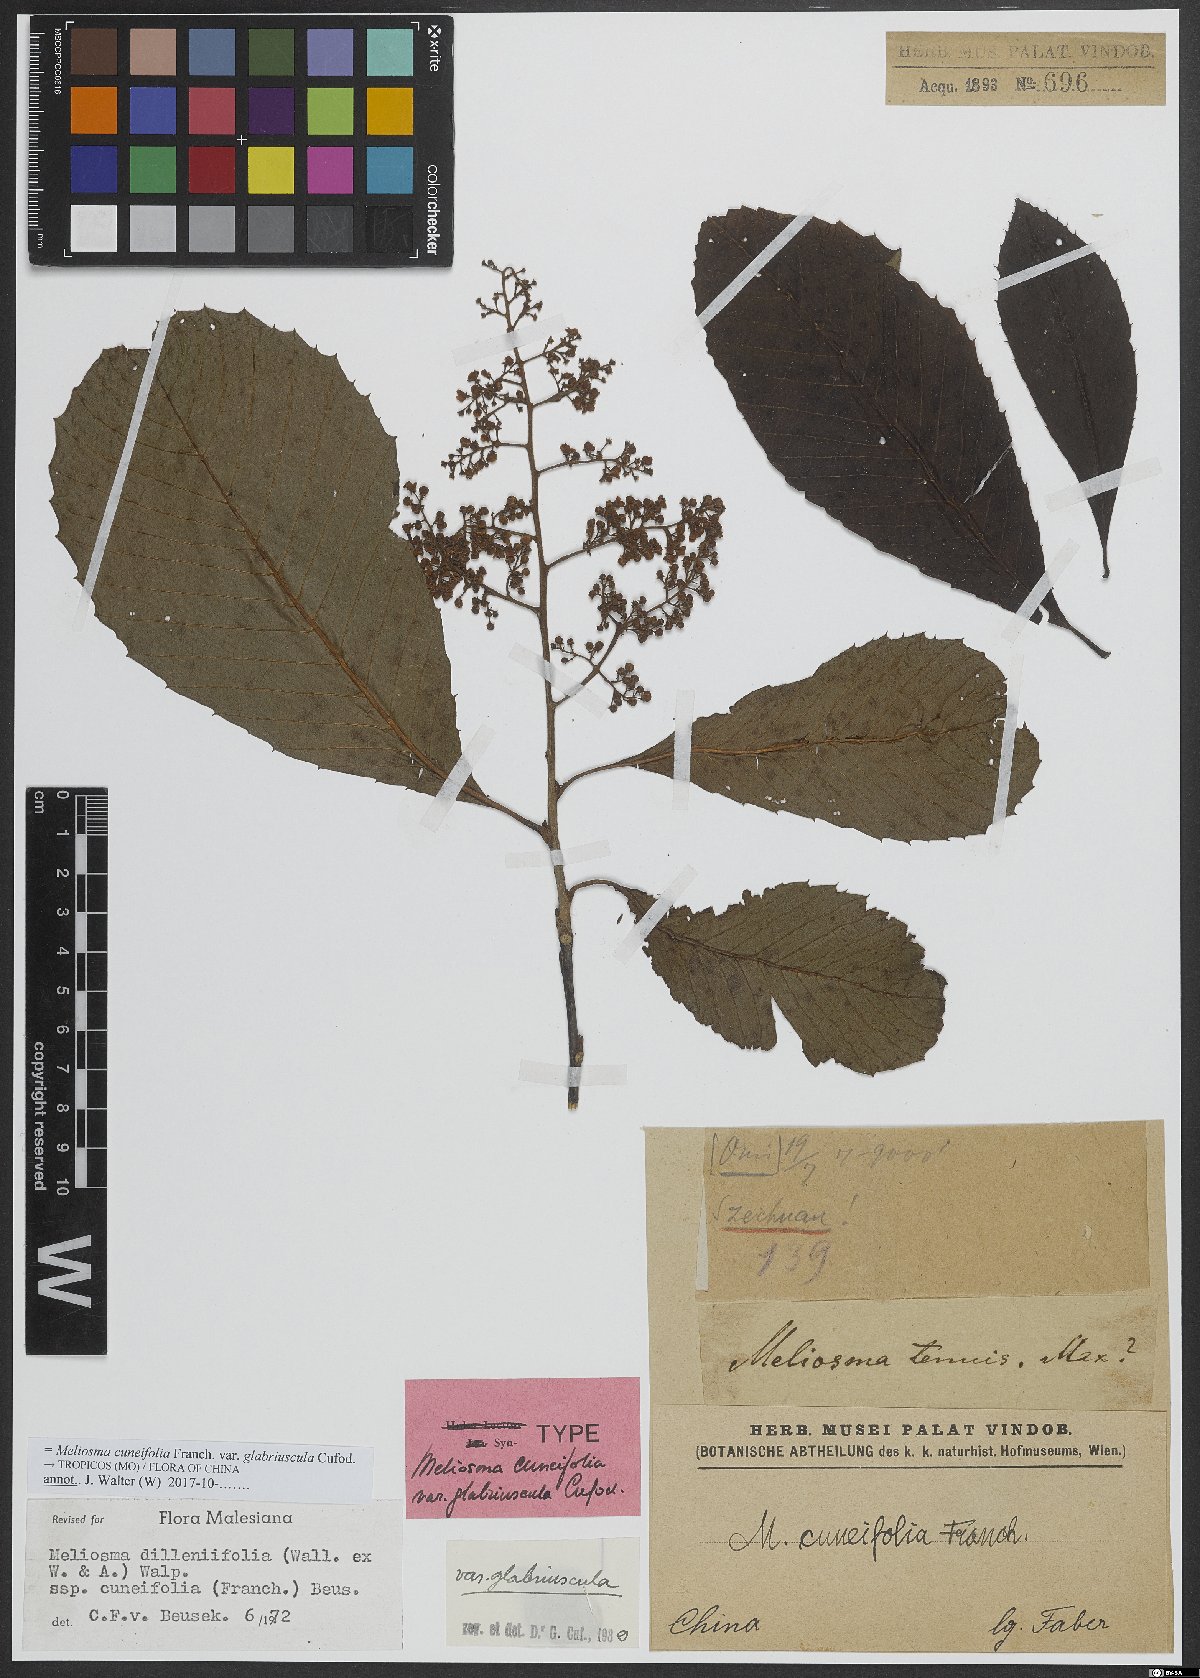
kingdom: Plantae
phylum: Tracheophyta
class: Magnoliopsida
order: Proteales
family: Sabiaceae
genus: Meliosma
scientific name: Meliosma cuneifolia
